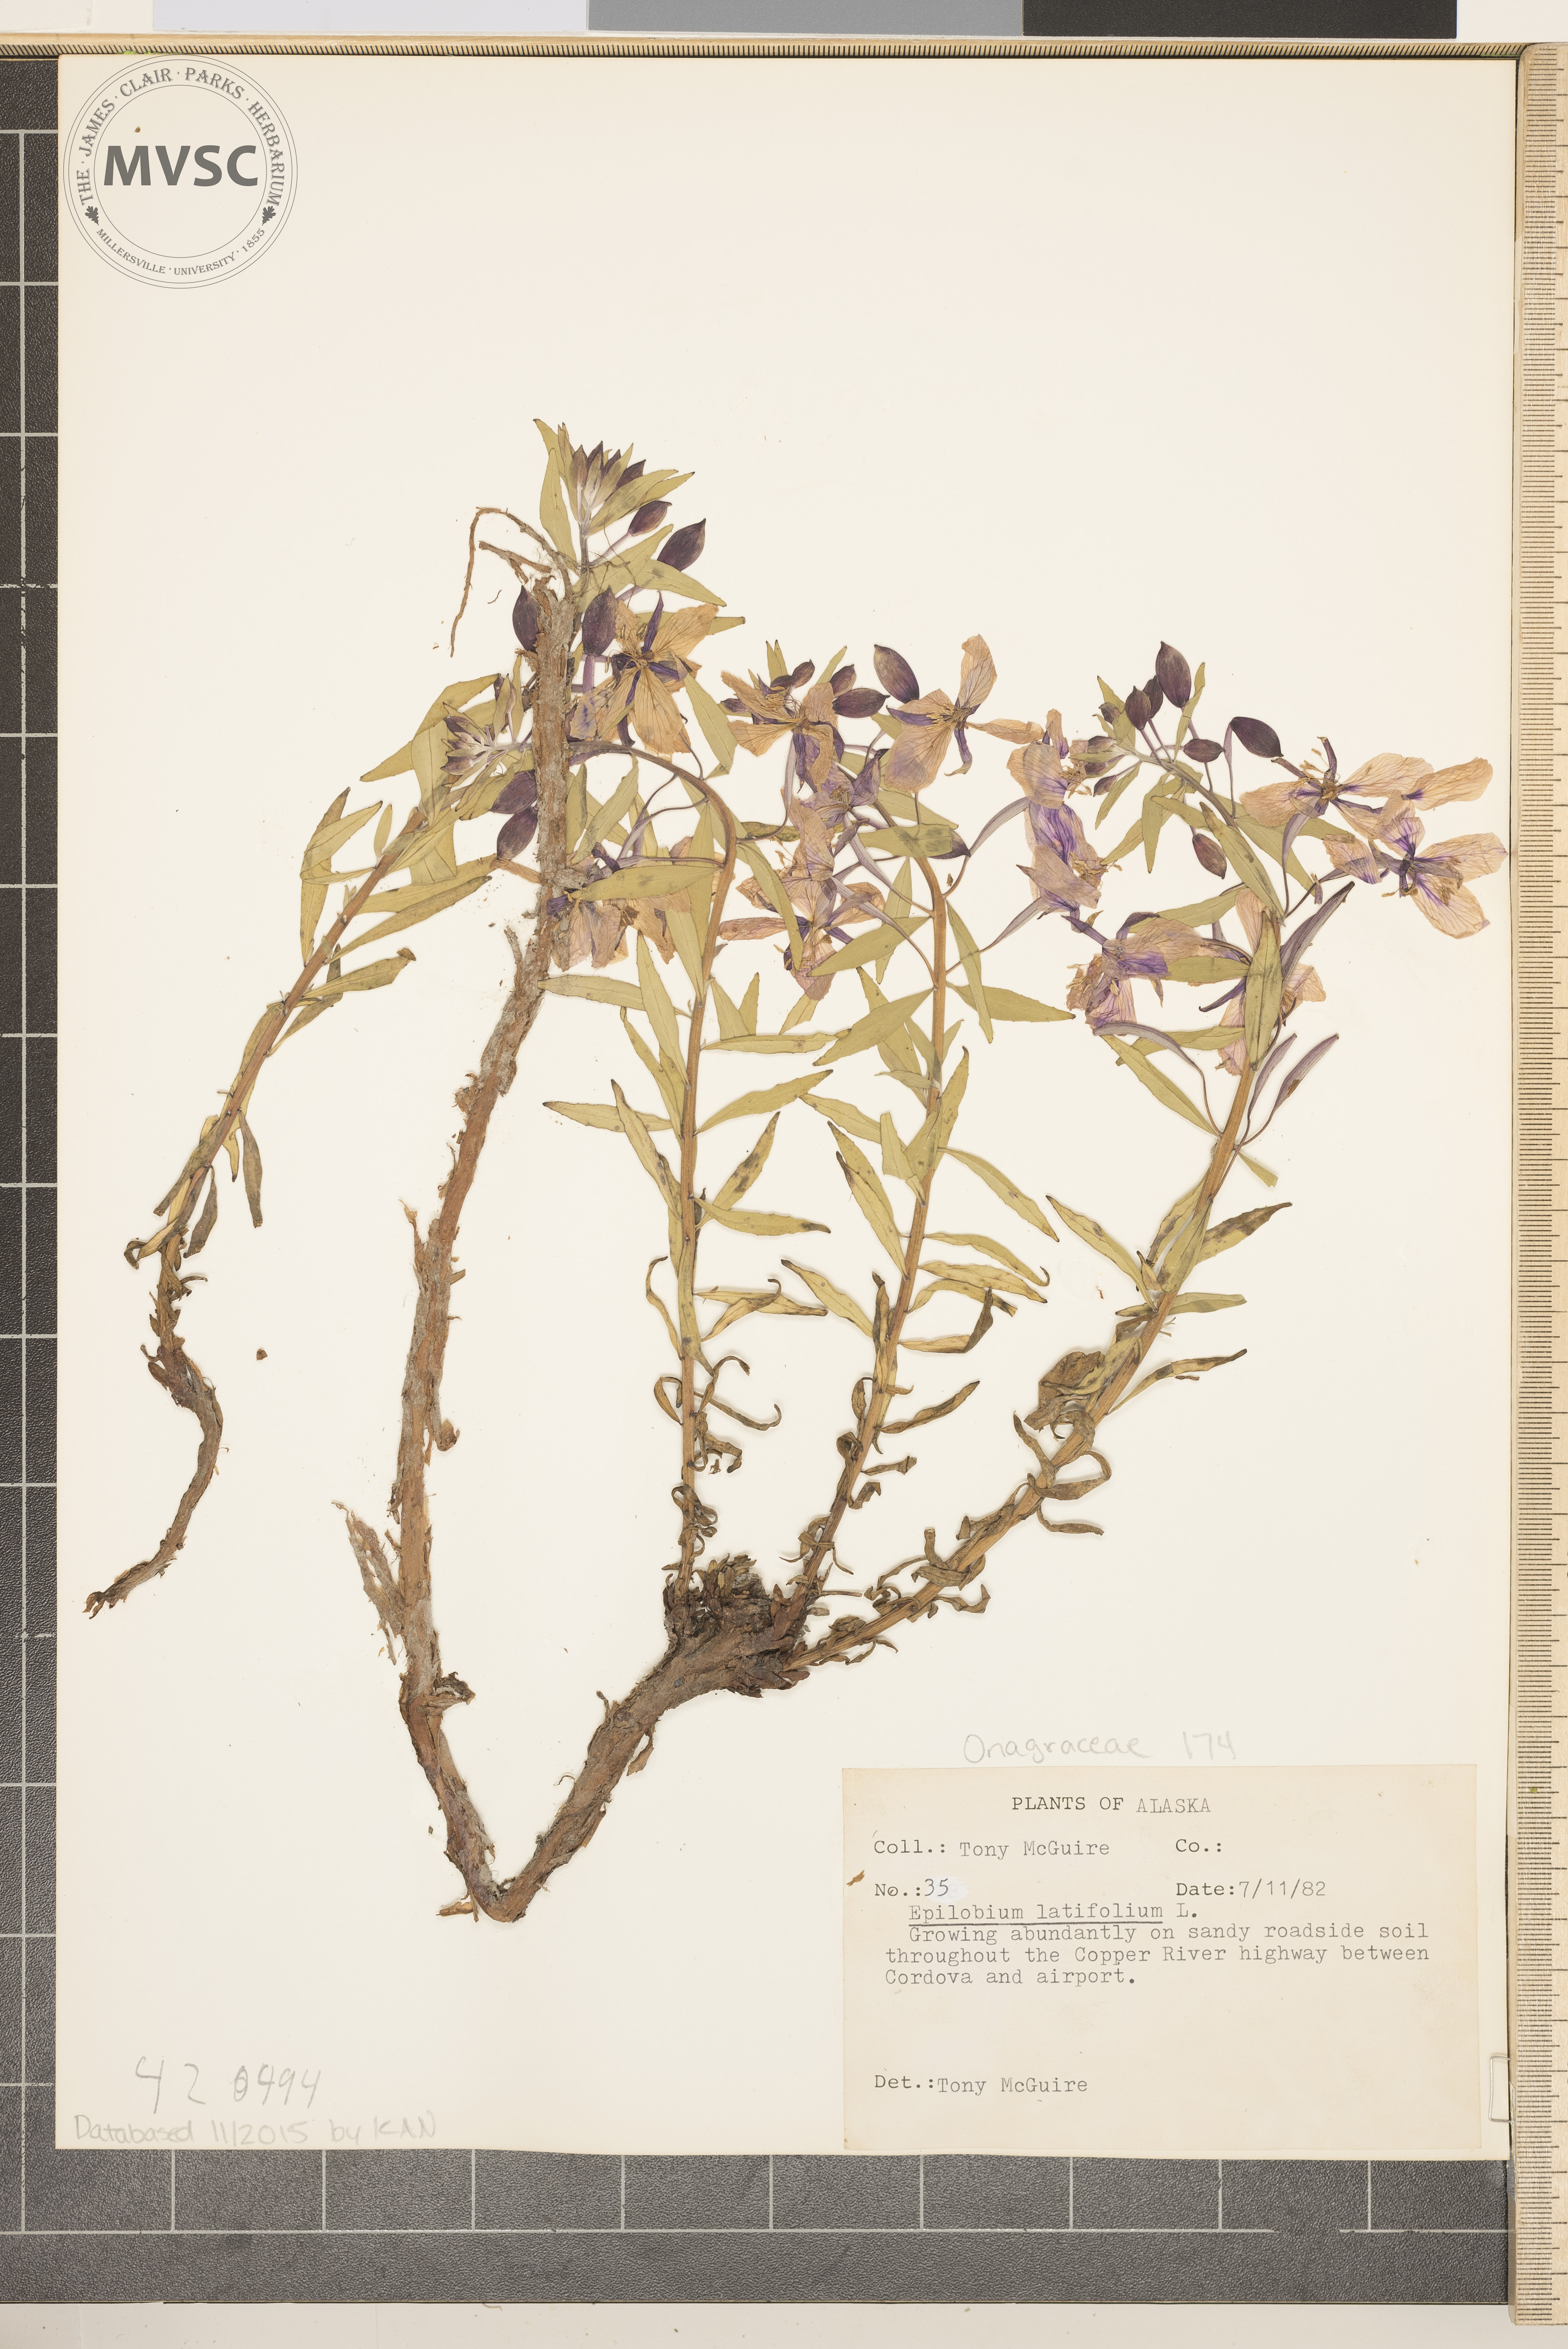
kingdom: Plantae
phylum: Tracheophyta
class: Magnoliopsida
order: Myrtales
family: Onagraceae
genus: Chamaenerion
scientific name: Chamaenerion latifolium
